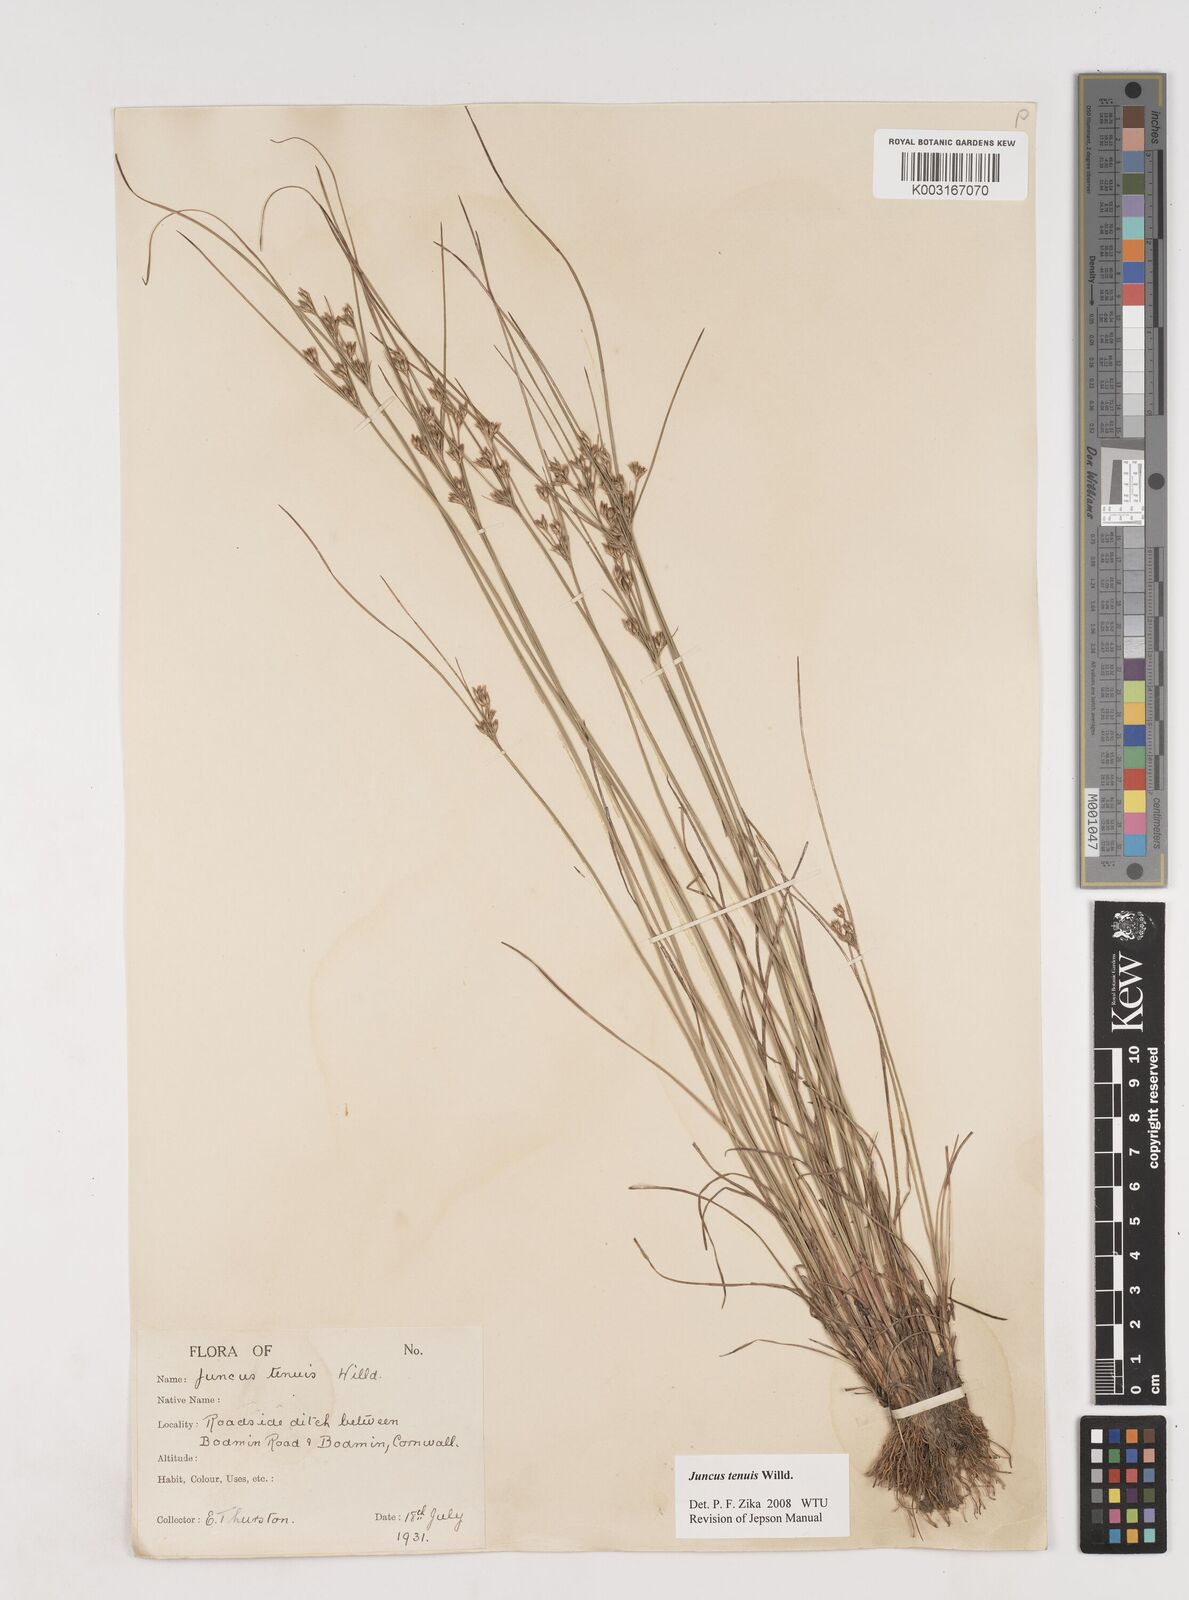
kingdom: Plantae
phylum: Tracheophyta
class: Liliopsida
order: Poales
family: Juncaceae
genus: Juncus
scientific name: Juncus tenuis
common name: Slender rush
